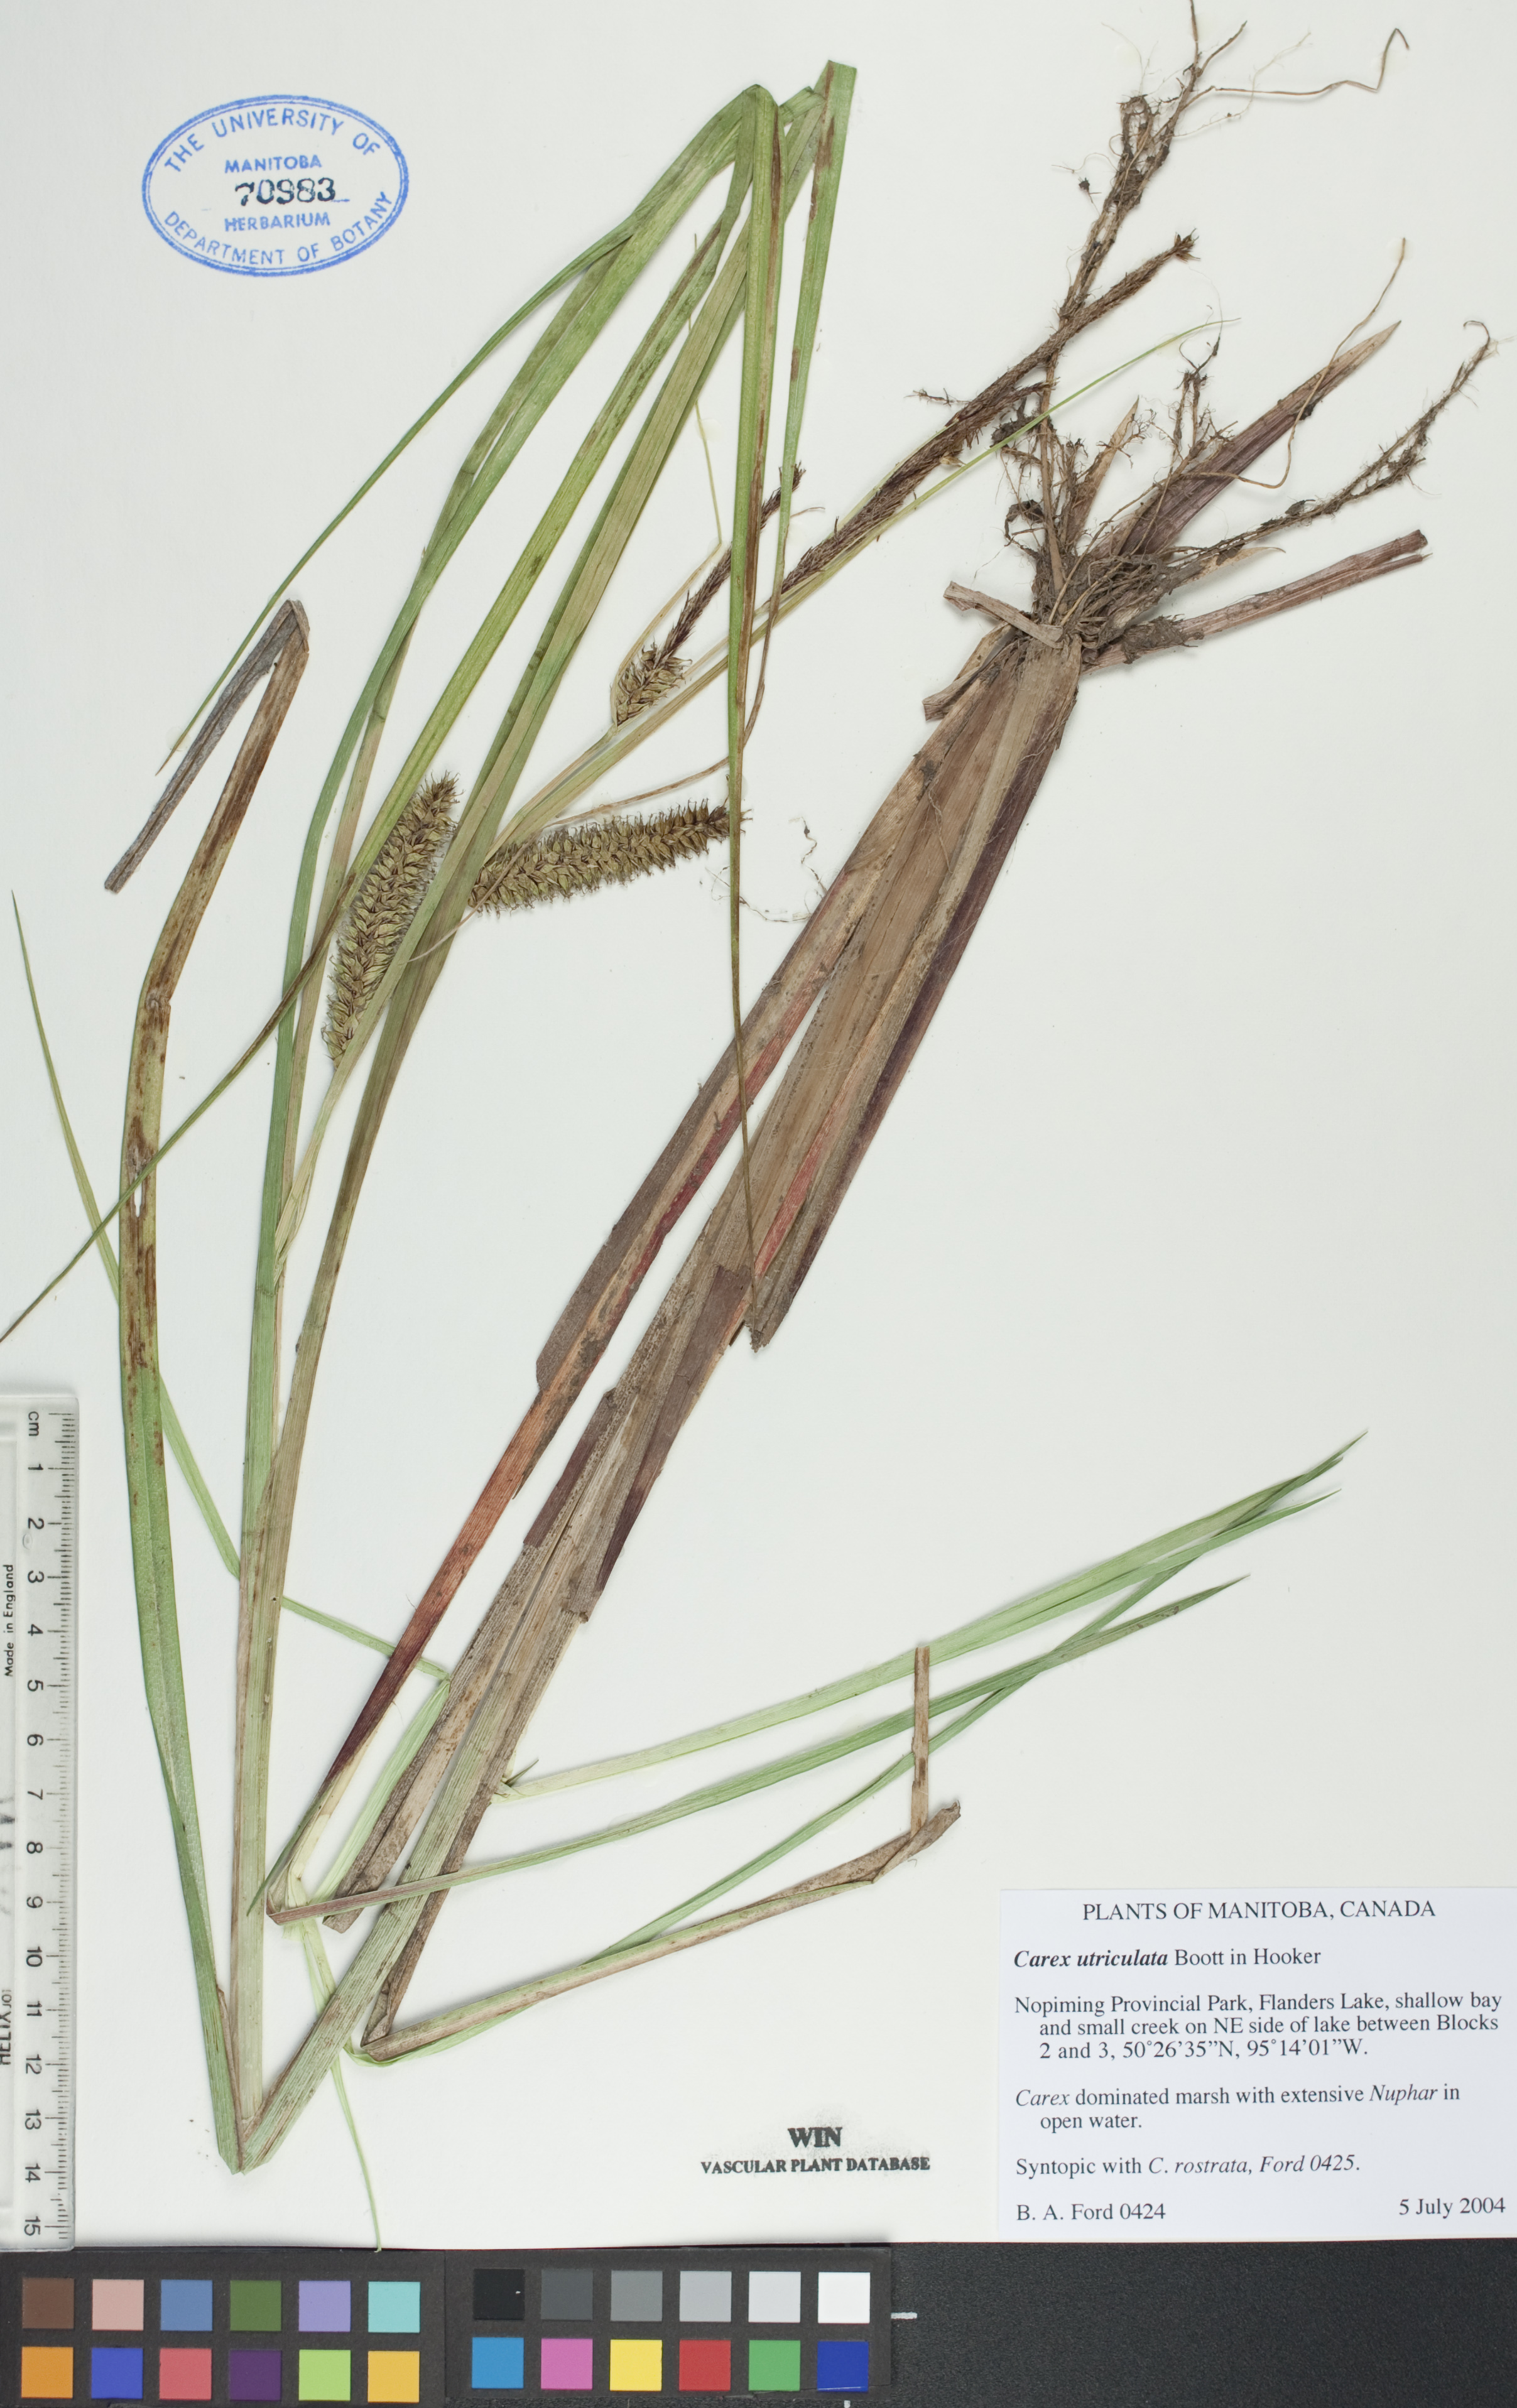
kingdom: Plantae
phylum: Tracheophyta
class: Liliopsida
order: Poales
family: Cyperaceae
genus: Carex
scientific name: Carex utriculata
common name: Beaked sedge
